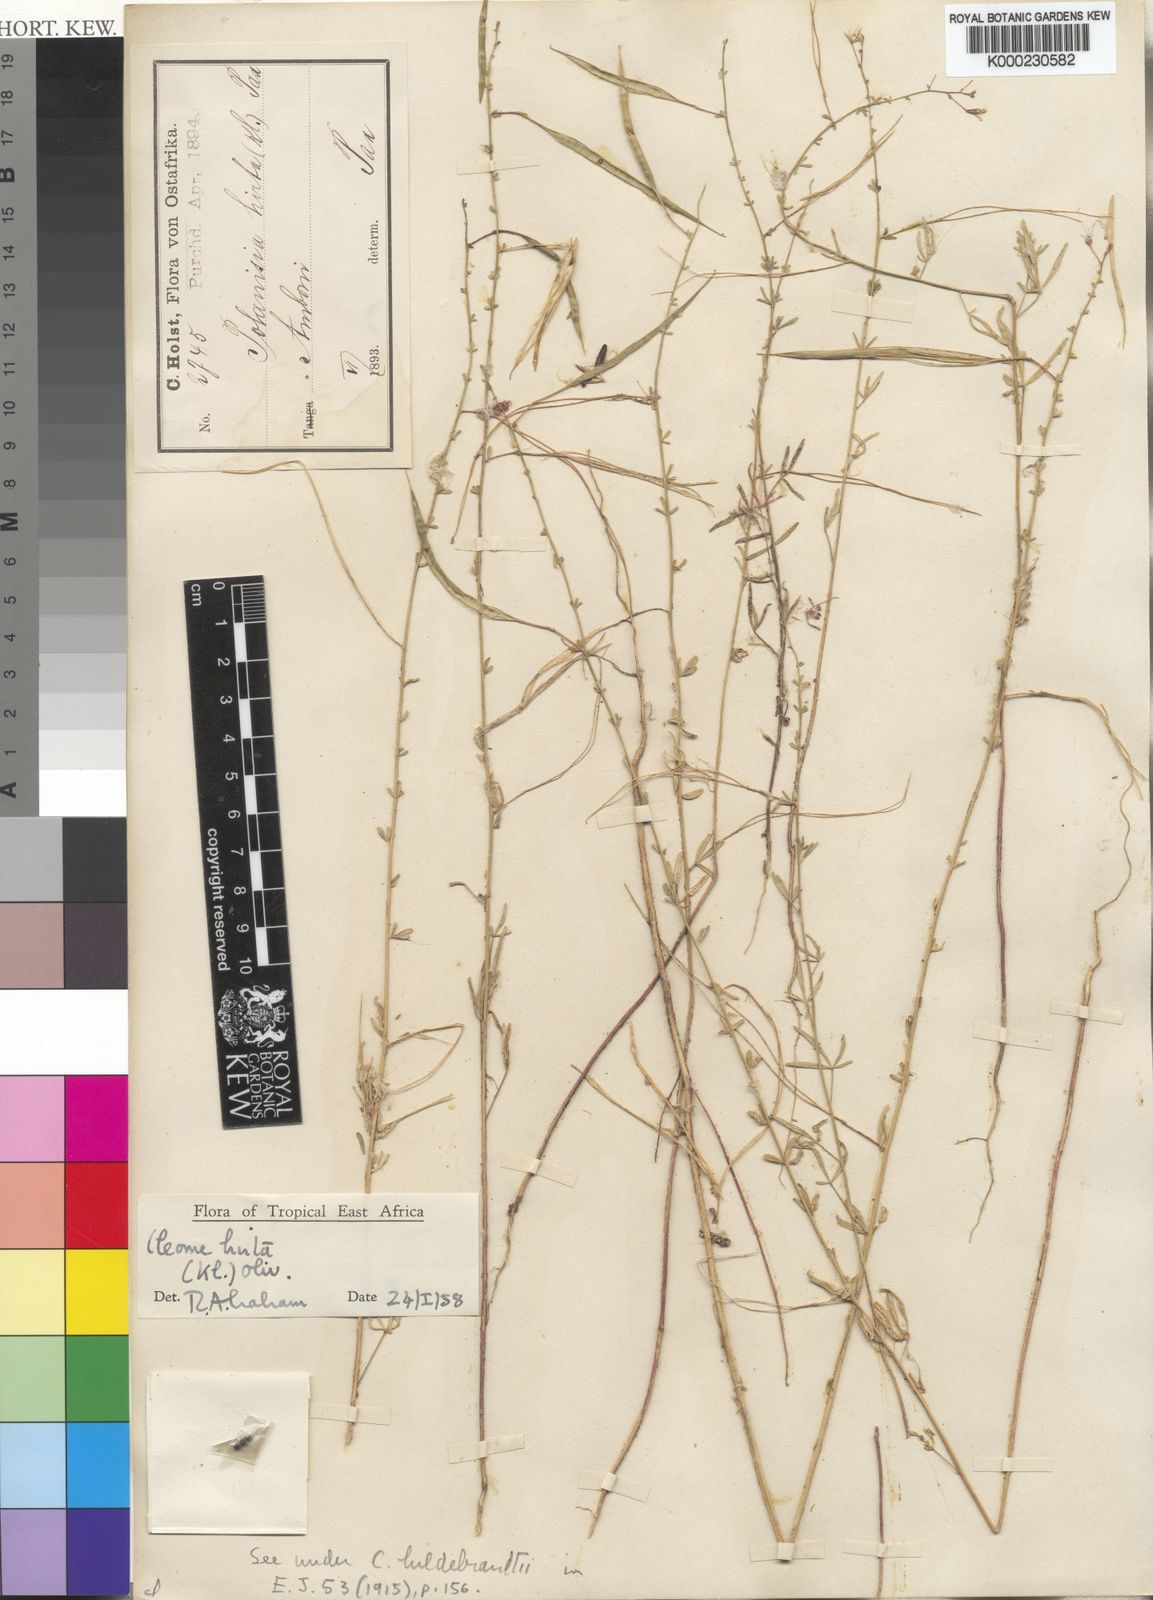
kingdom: Plantae
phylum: Tracheophyta
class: Magnoliopsida
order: Brassicales
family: Cleomaceae
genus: Sieruela
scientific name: Sieruela hirta
